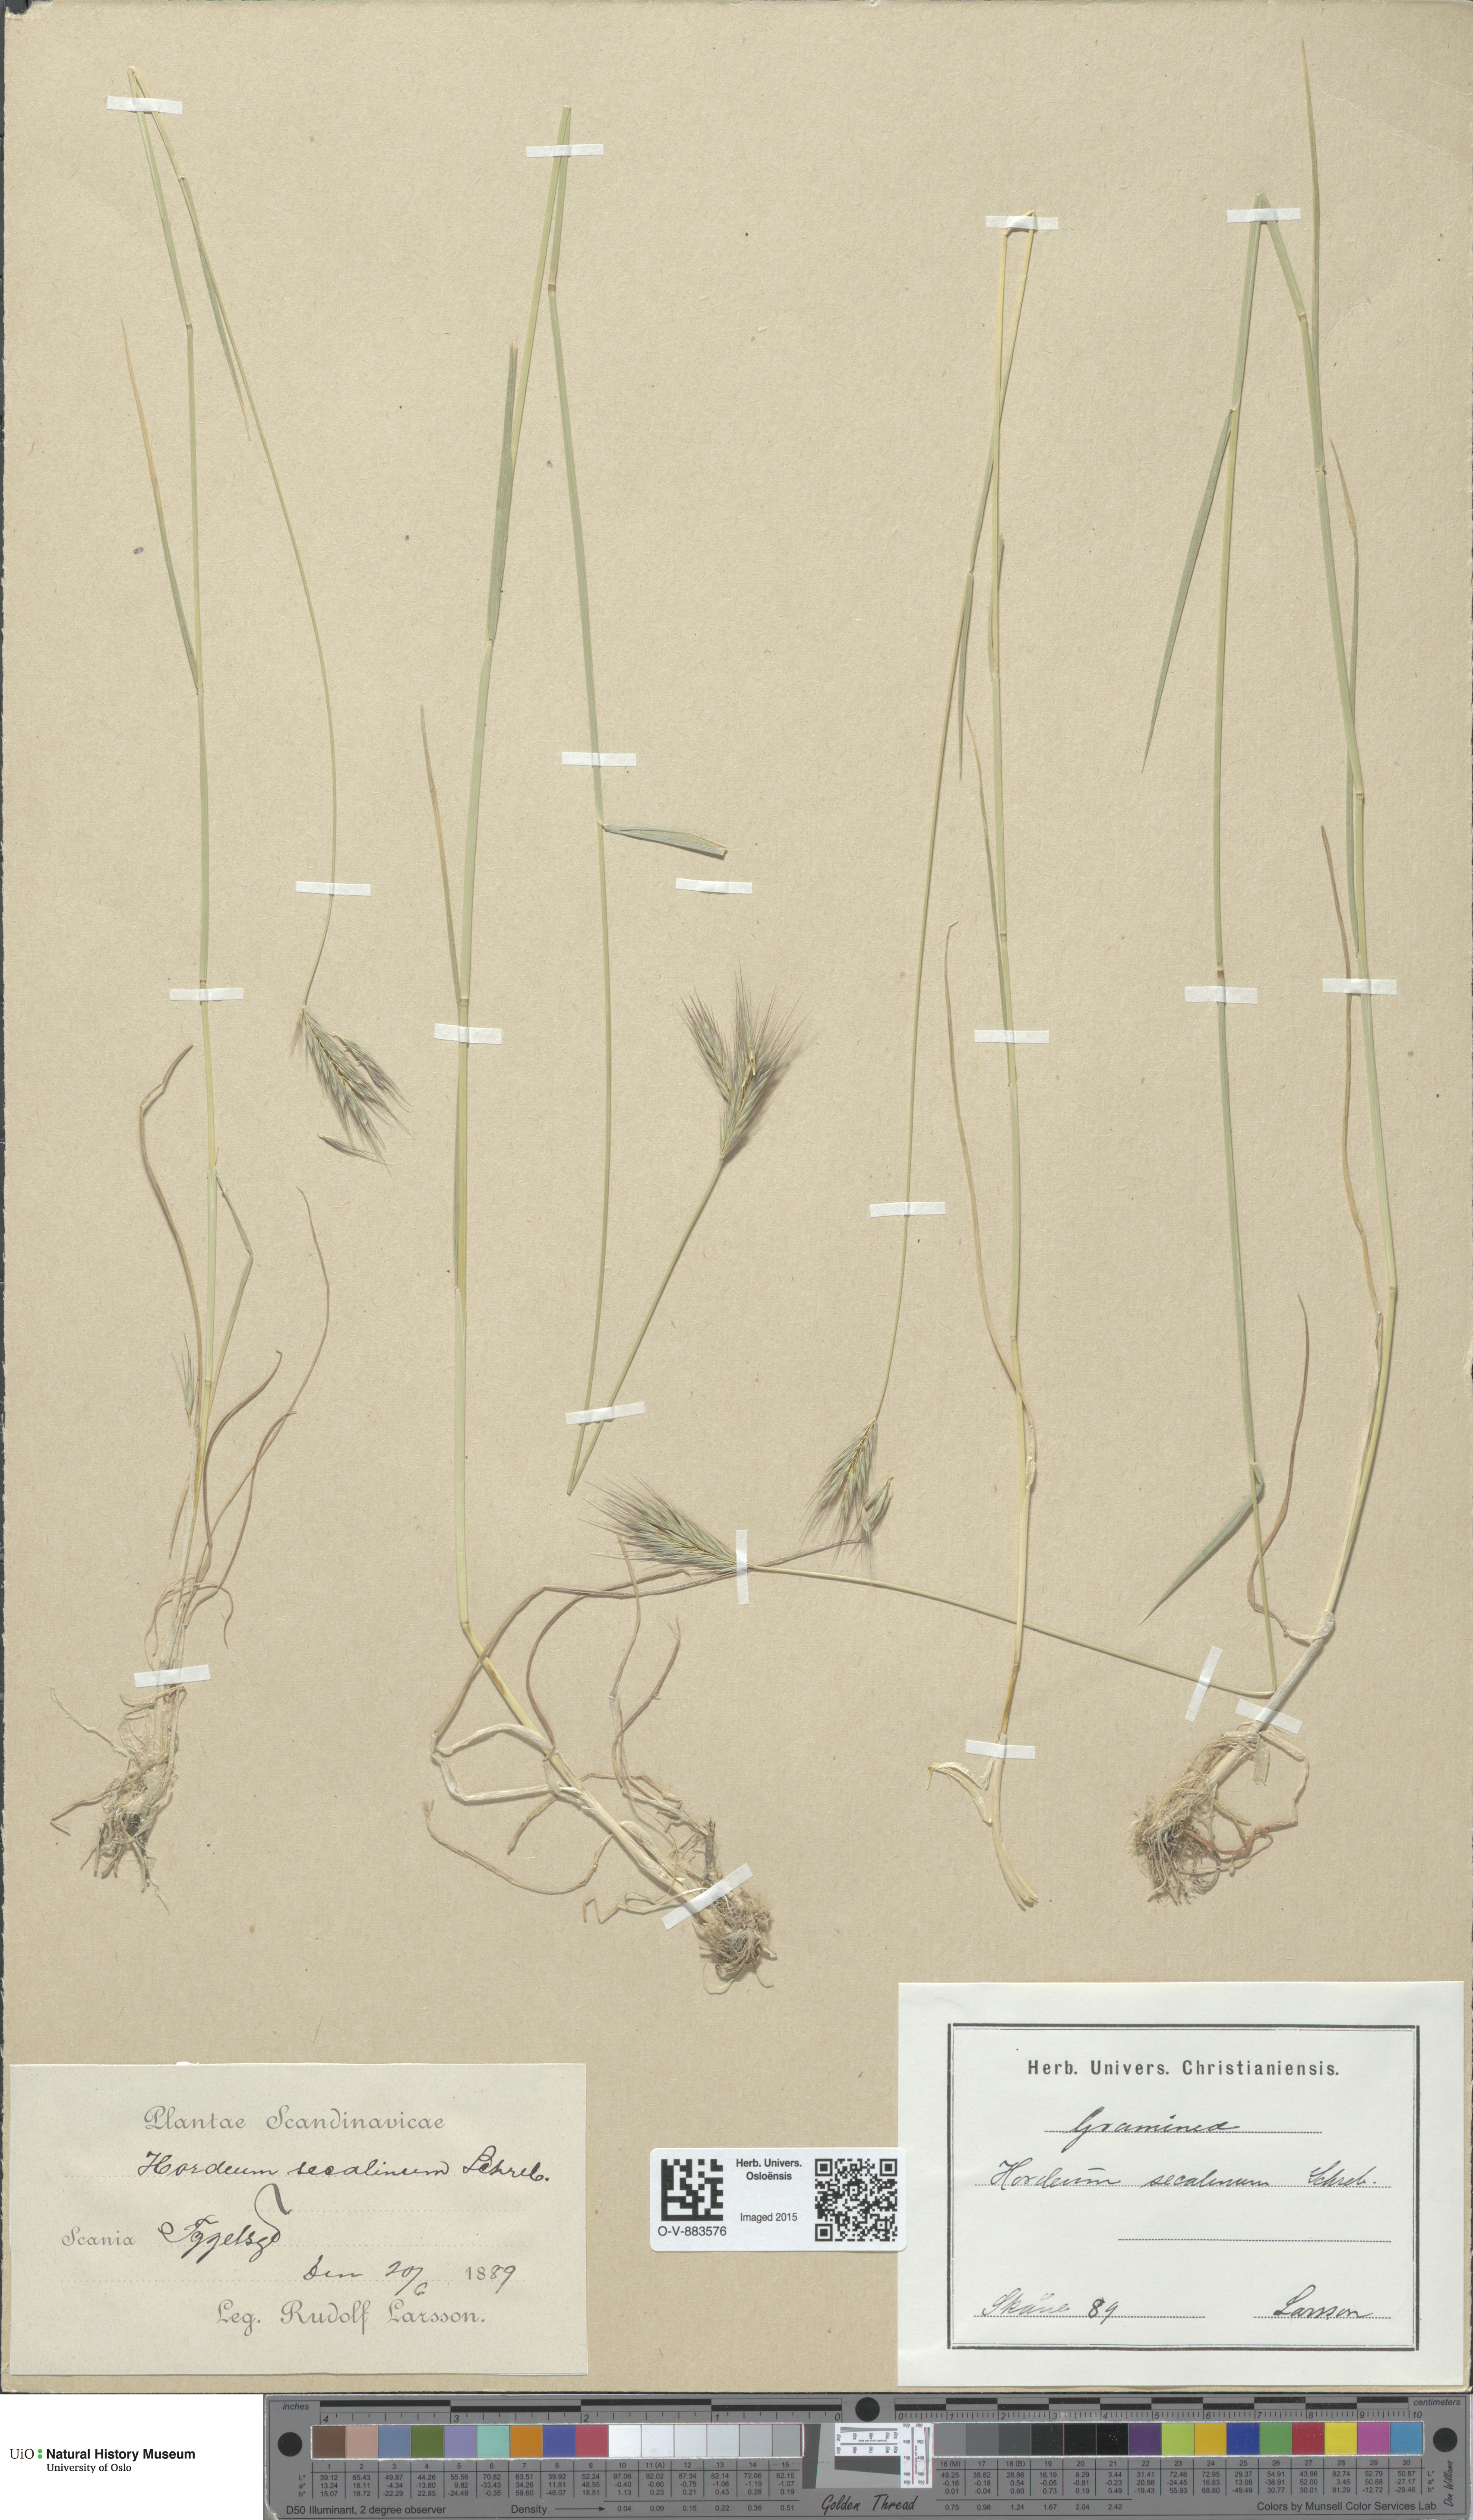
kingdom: Plantae
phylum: Tracheophyta
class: Liliopsida
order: Poales
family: Poaceae
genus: Hordeum
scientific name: Hordeum secalinum
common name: Meadow barley
